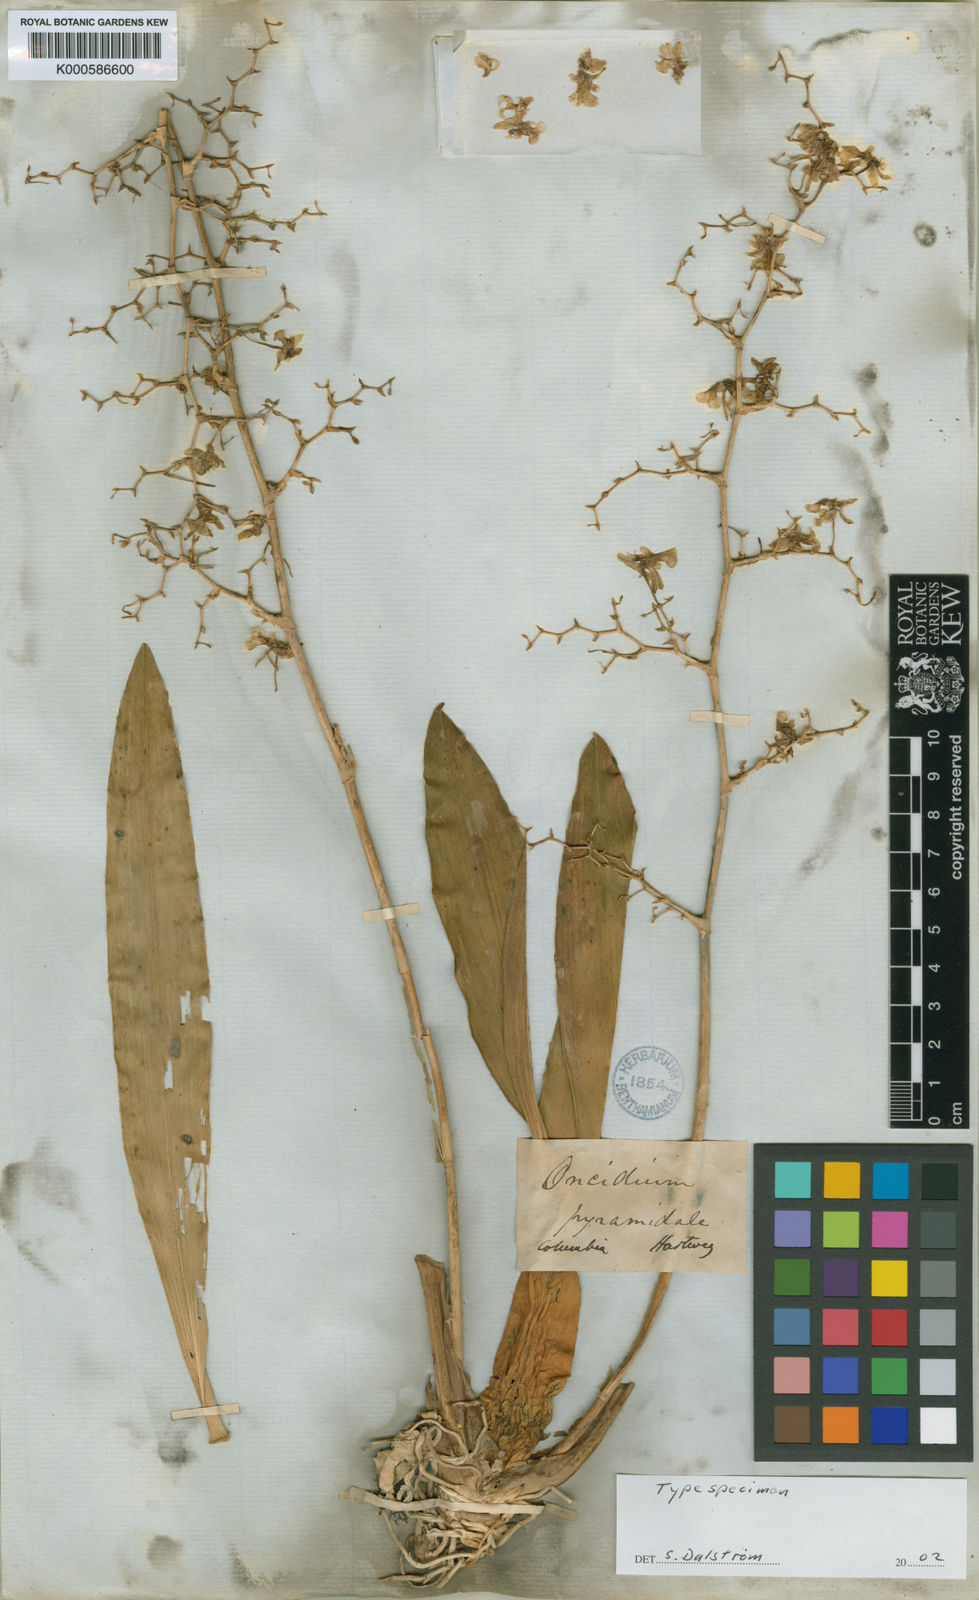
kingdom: Plantae
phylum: Tracheophyta
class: Liliopsida
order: Asparagales
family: Orchidaceae
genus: Oncidium
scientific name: Oncidium ornithorhynchum
